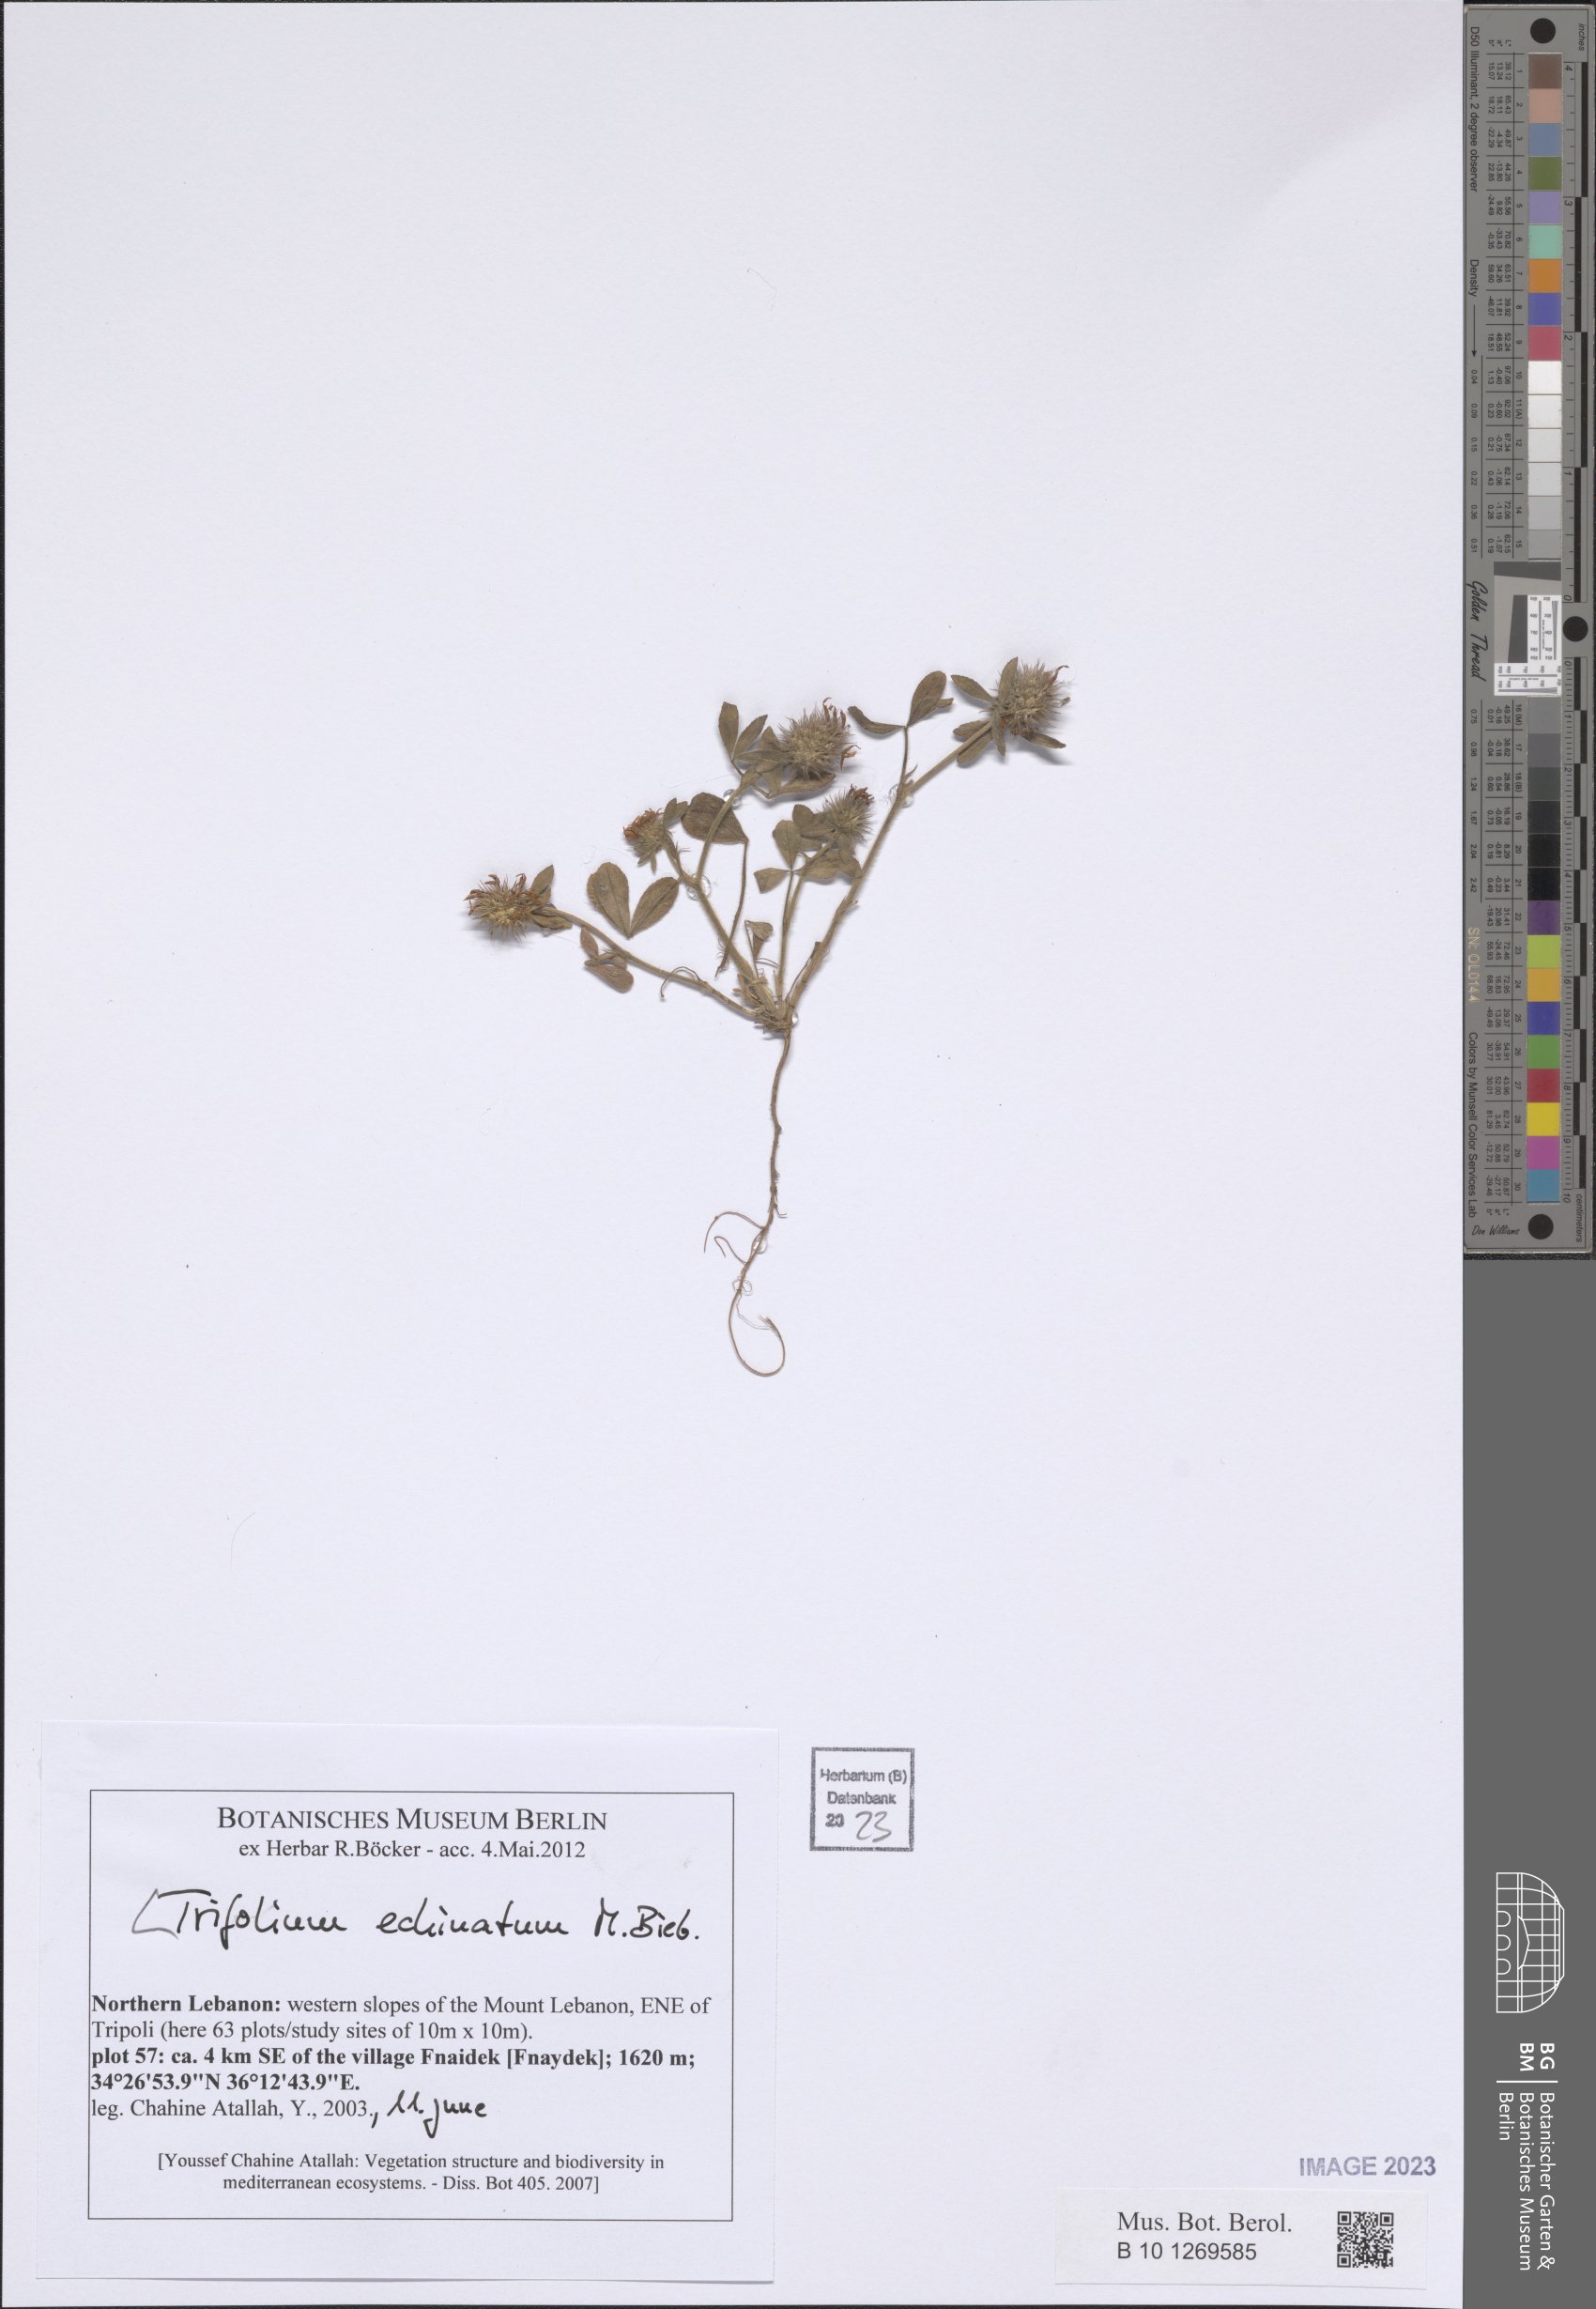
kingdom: Plantae
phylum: Tracheophyta
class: Magnoliopsida
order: Fabales
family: Fabaceae
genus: Trifolium
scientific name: Trifolium echinatum
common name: Hedgehog clover
